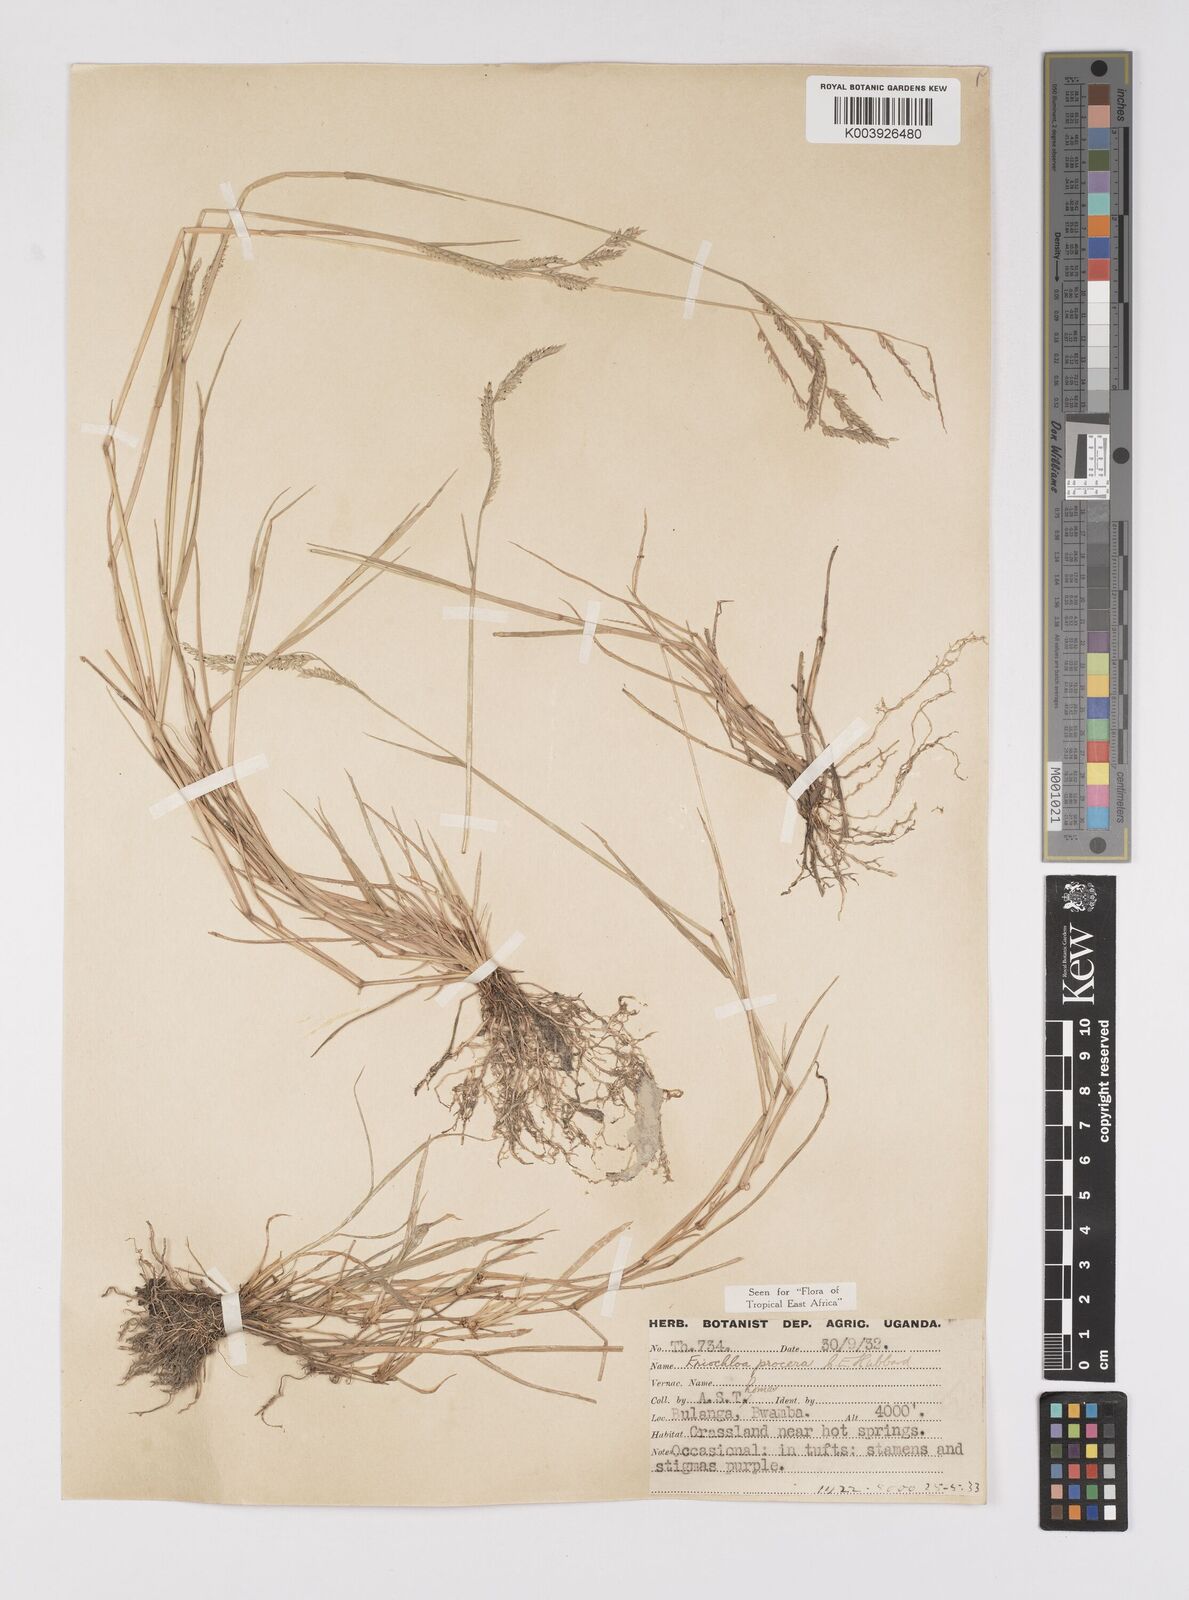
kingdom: Plantae
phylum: Tracheophyta
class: Liliopsida
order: Poales
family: Poaceae
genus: Eriochloa
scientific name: Eriochloa procera
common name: Spring grass
